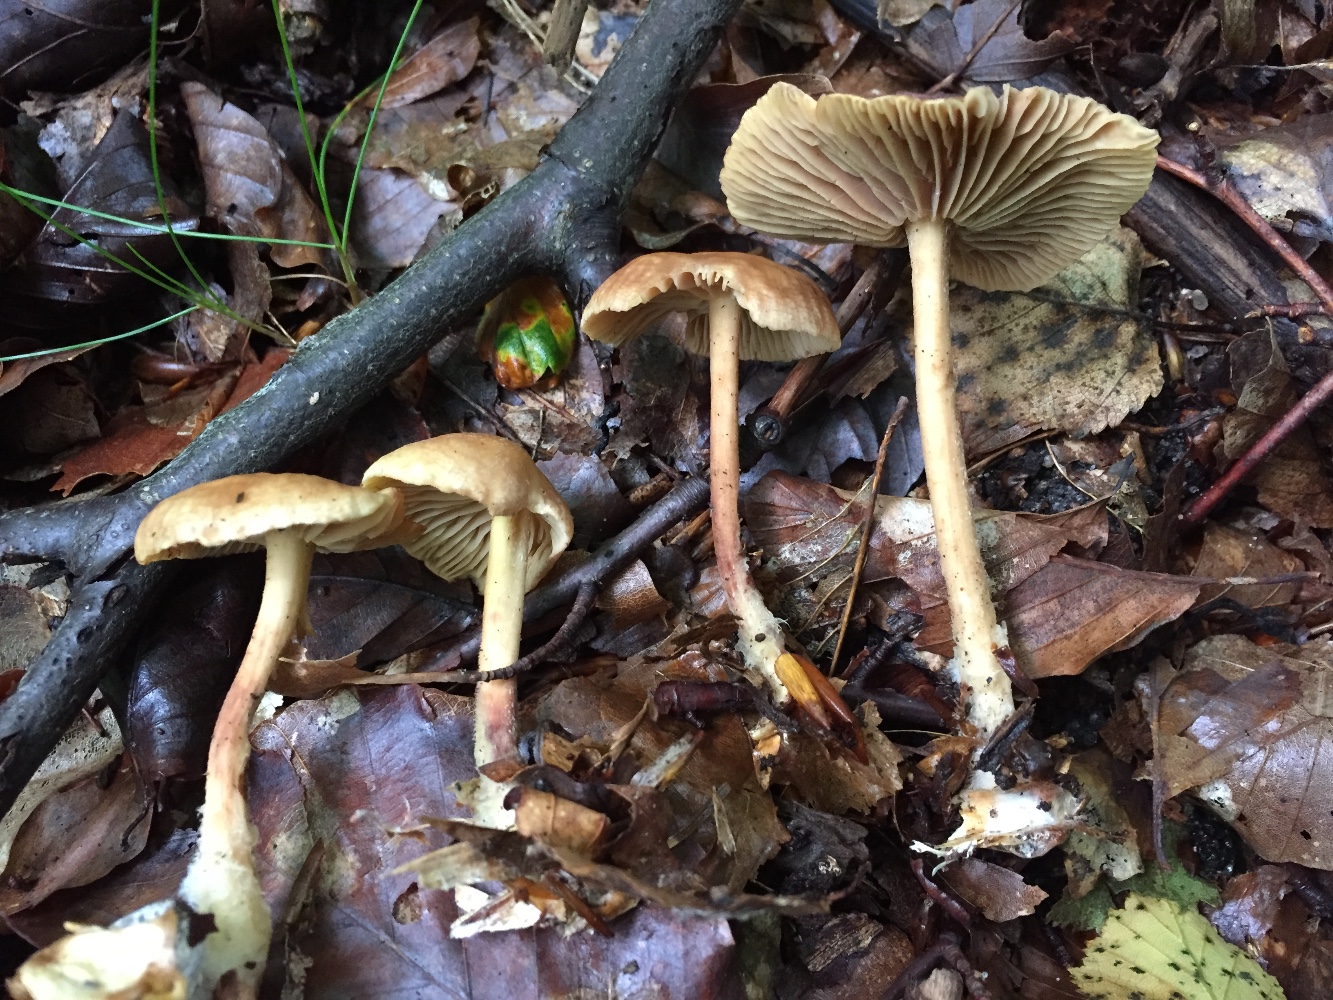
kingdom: Fungi
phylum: Basidiomycota
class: Agaricomycetes
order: Agaricales
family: Omphalotaceae
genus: Collybiopsis
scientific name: Collybiopsis peronata
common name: bestøvlet fladhat
